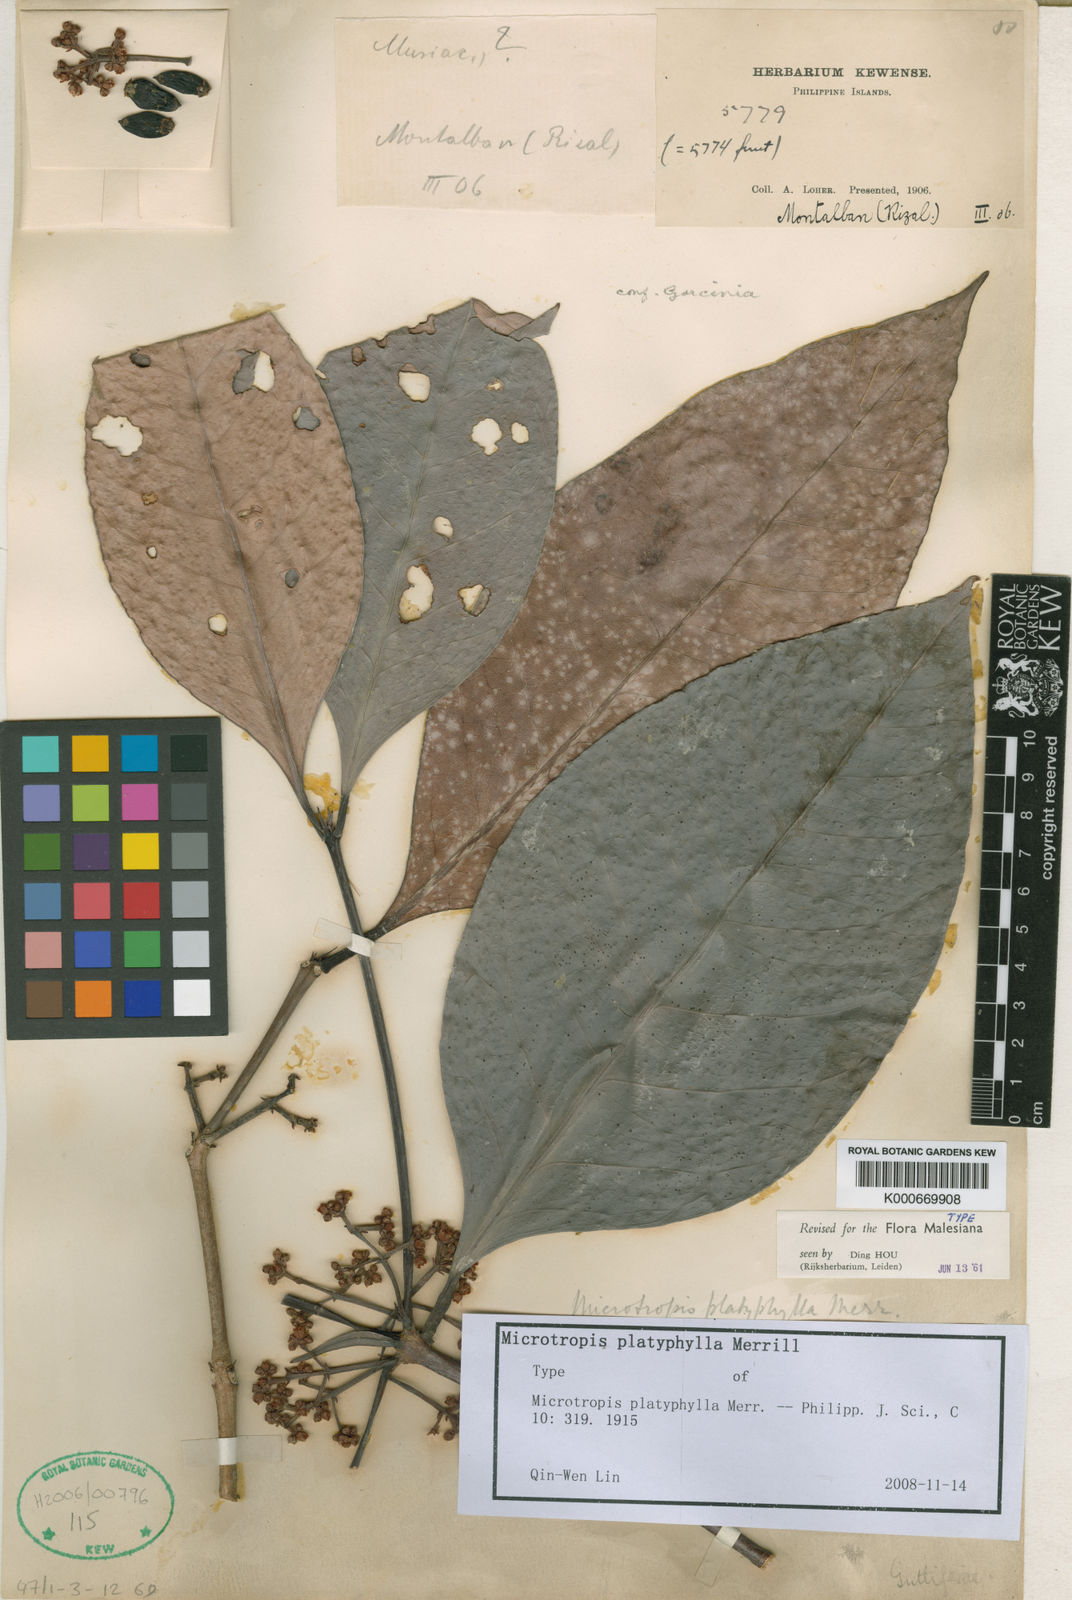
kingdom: Plantae
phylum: Tracheophyta
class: Magnoliopsida
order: Celastrales
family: Celastraceae
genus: Microtropis
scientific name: Microtropis platyphylla
